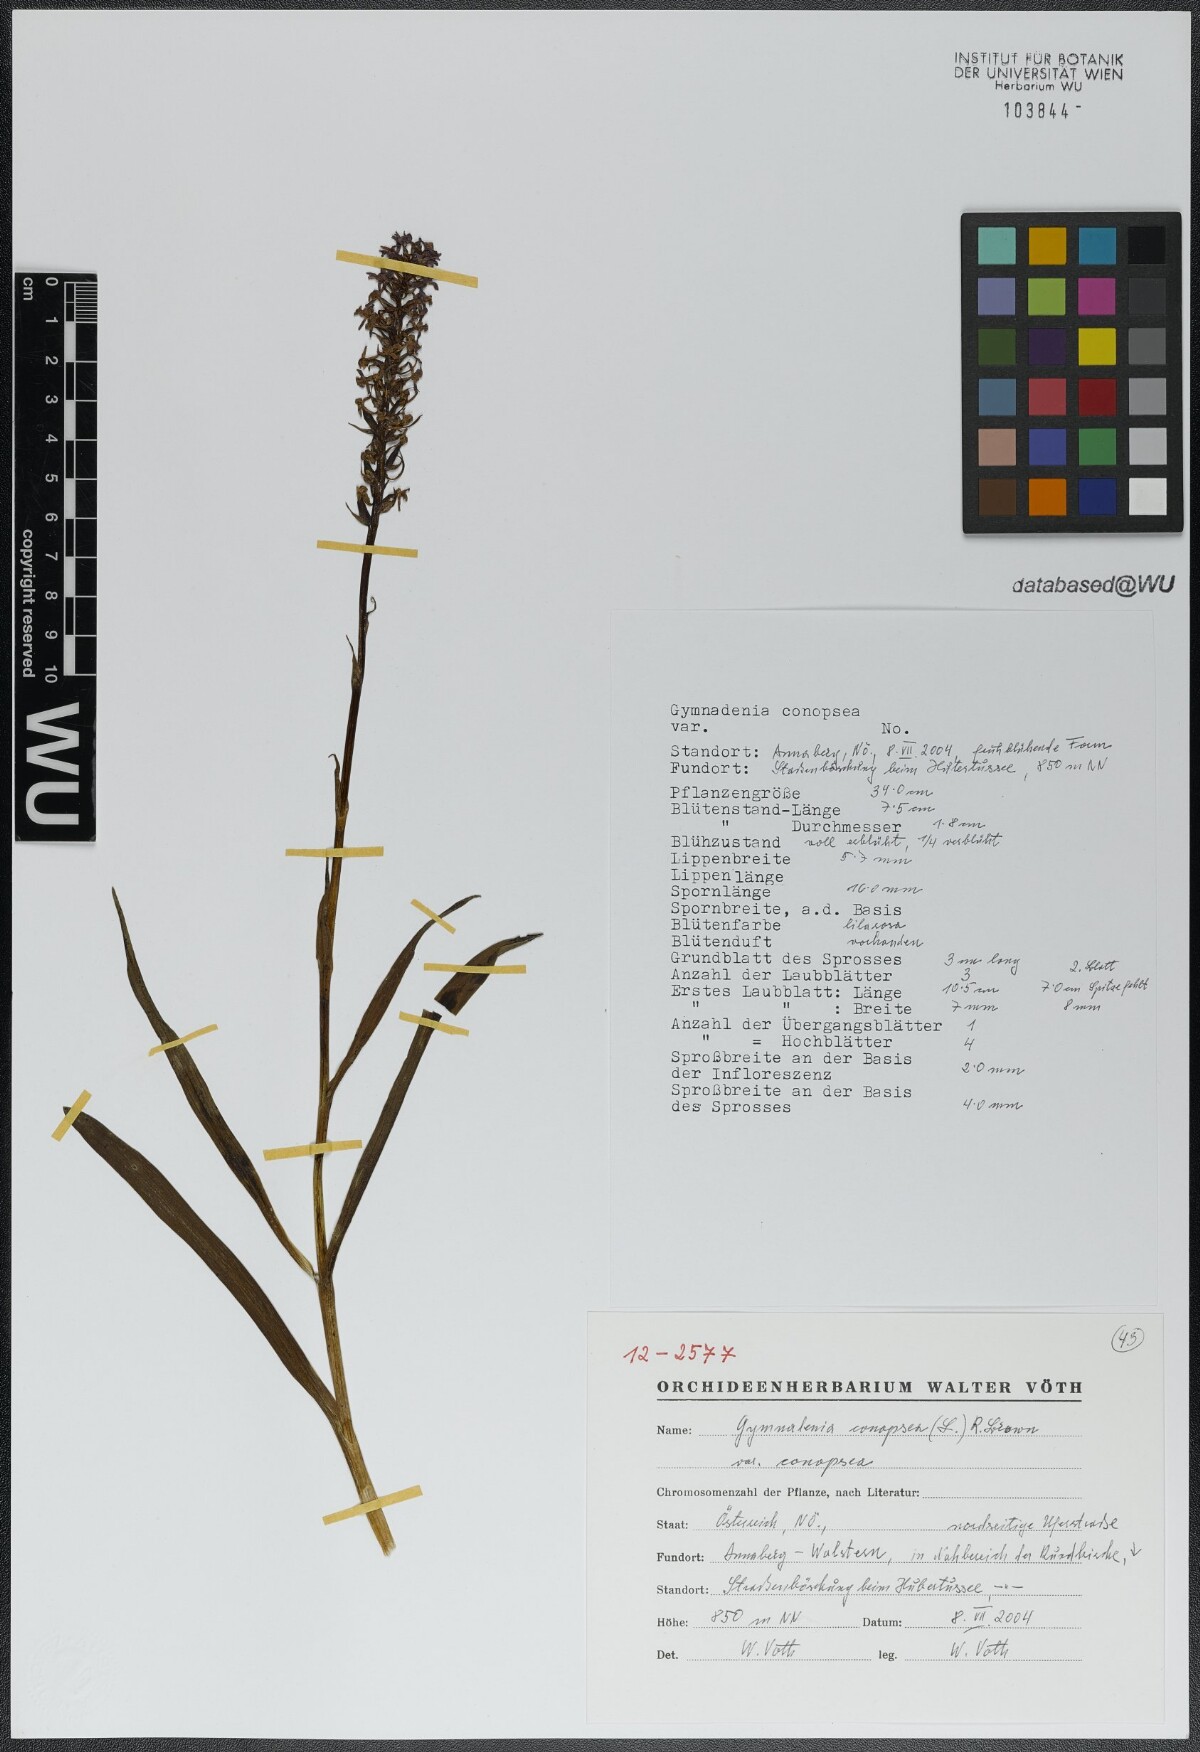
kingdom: Plantae
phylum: Tracheophyta
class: Liliopsida
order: Asparagales
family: Orchidaceae
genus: Gymnadenia
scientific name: Gymnadenia conopsea
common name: Fragrant orchid
